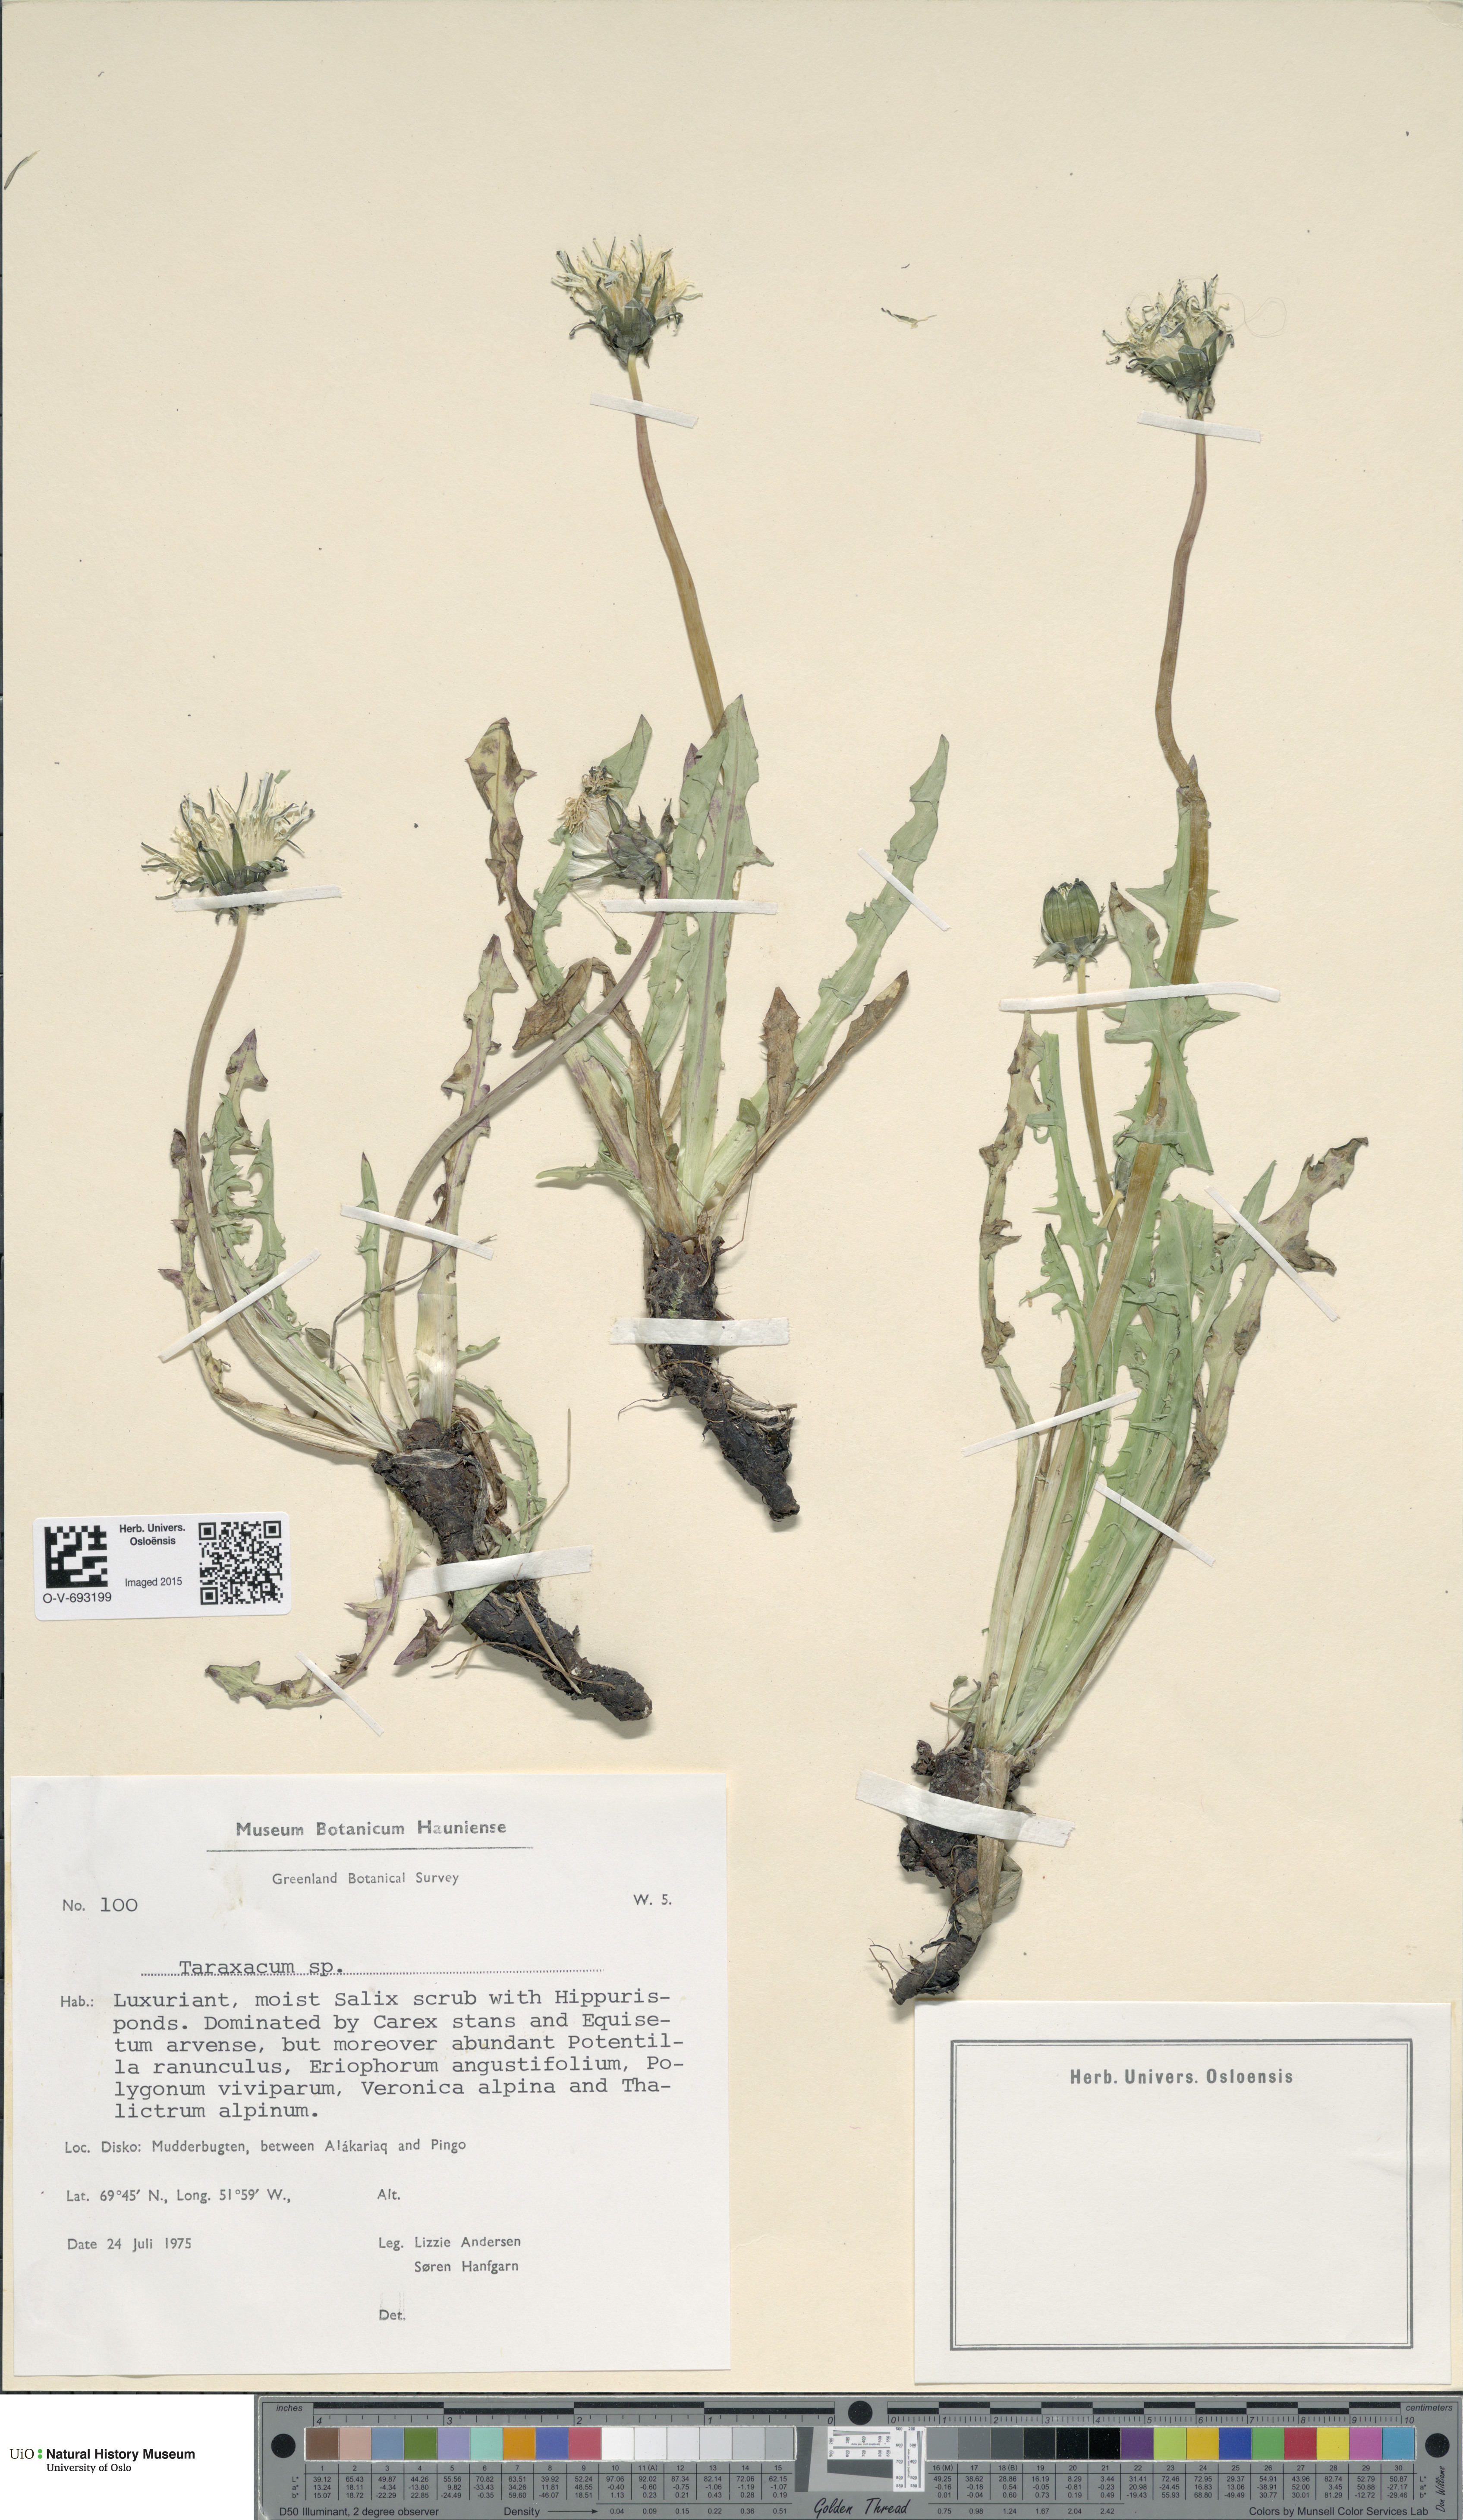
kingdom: Plantae
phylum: Tracheophyta
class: Magnoliopsida
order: Asterales
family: Asteraceae
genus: Taraxacum
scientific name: Taraxacum
